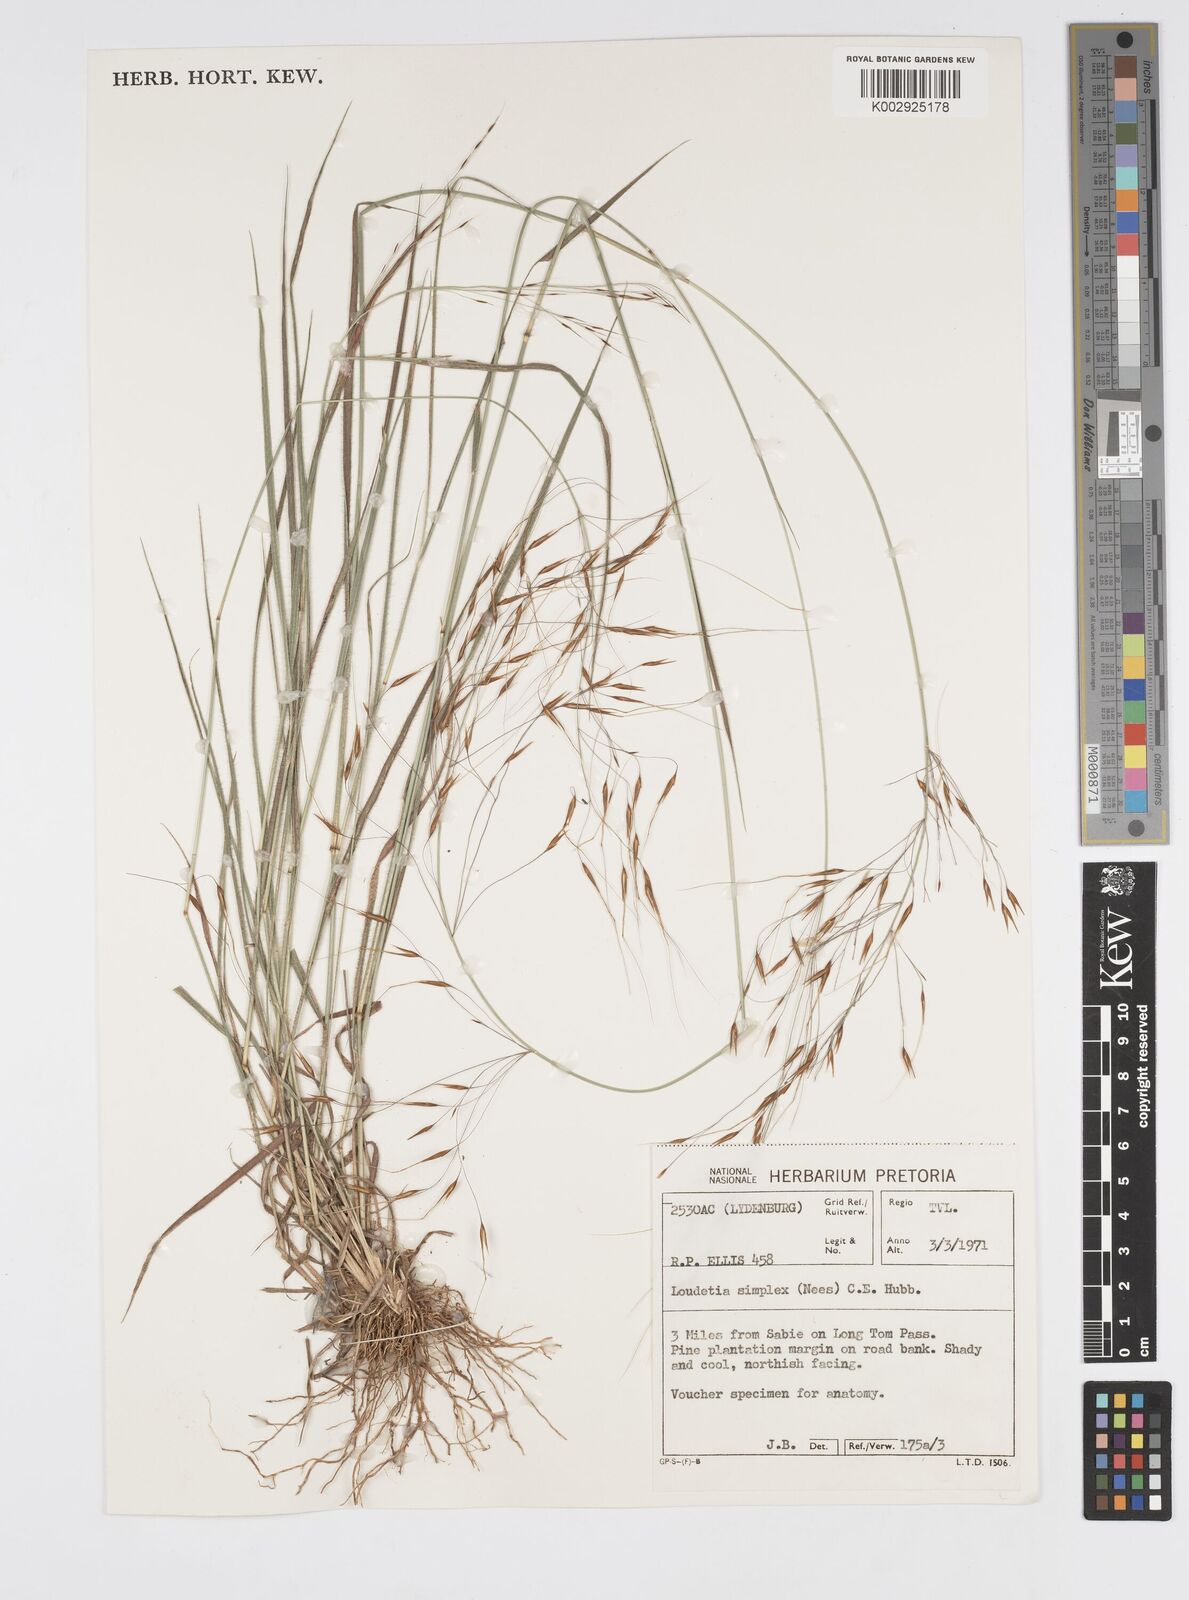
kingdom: Plantae
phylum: Tracheophyta
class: Liliopsida
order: Poales
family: Poaceae
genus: Loudetia
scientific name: Loudetia simplex
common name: Common russet grass
